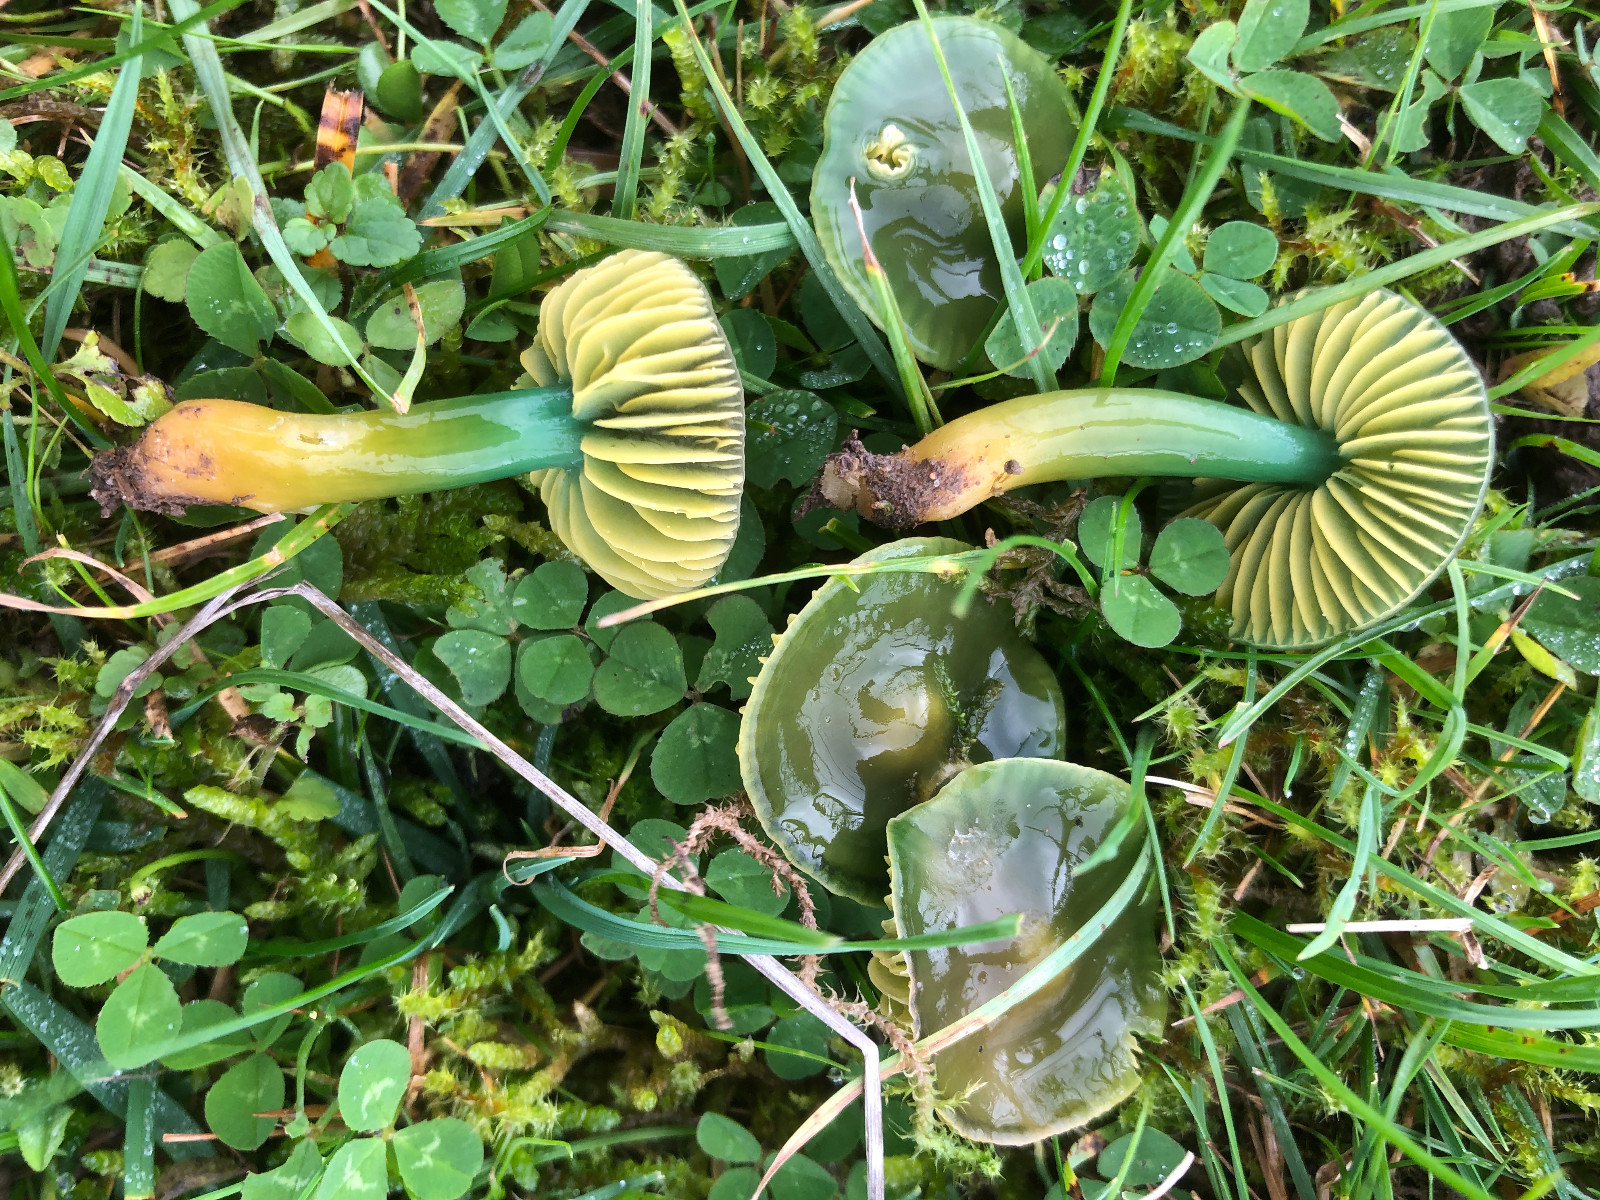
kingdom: Fungi
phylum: Basidiomycota
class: Agaricomycetes
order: Agaricales
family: Hygrophoraceae
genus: Gliophorus
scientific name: Gliophorus psittacinus
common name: papegøje-vokshat
